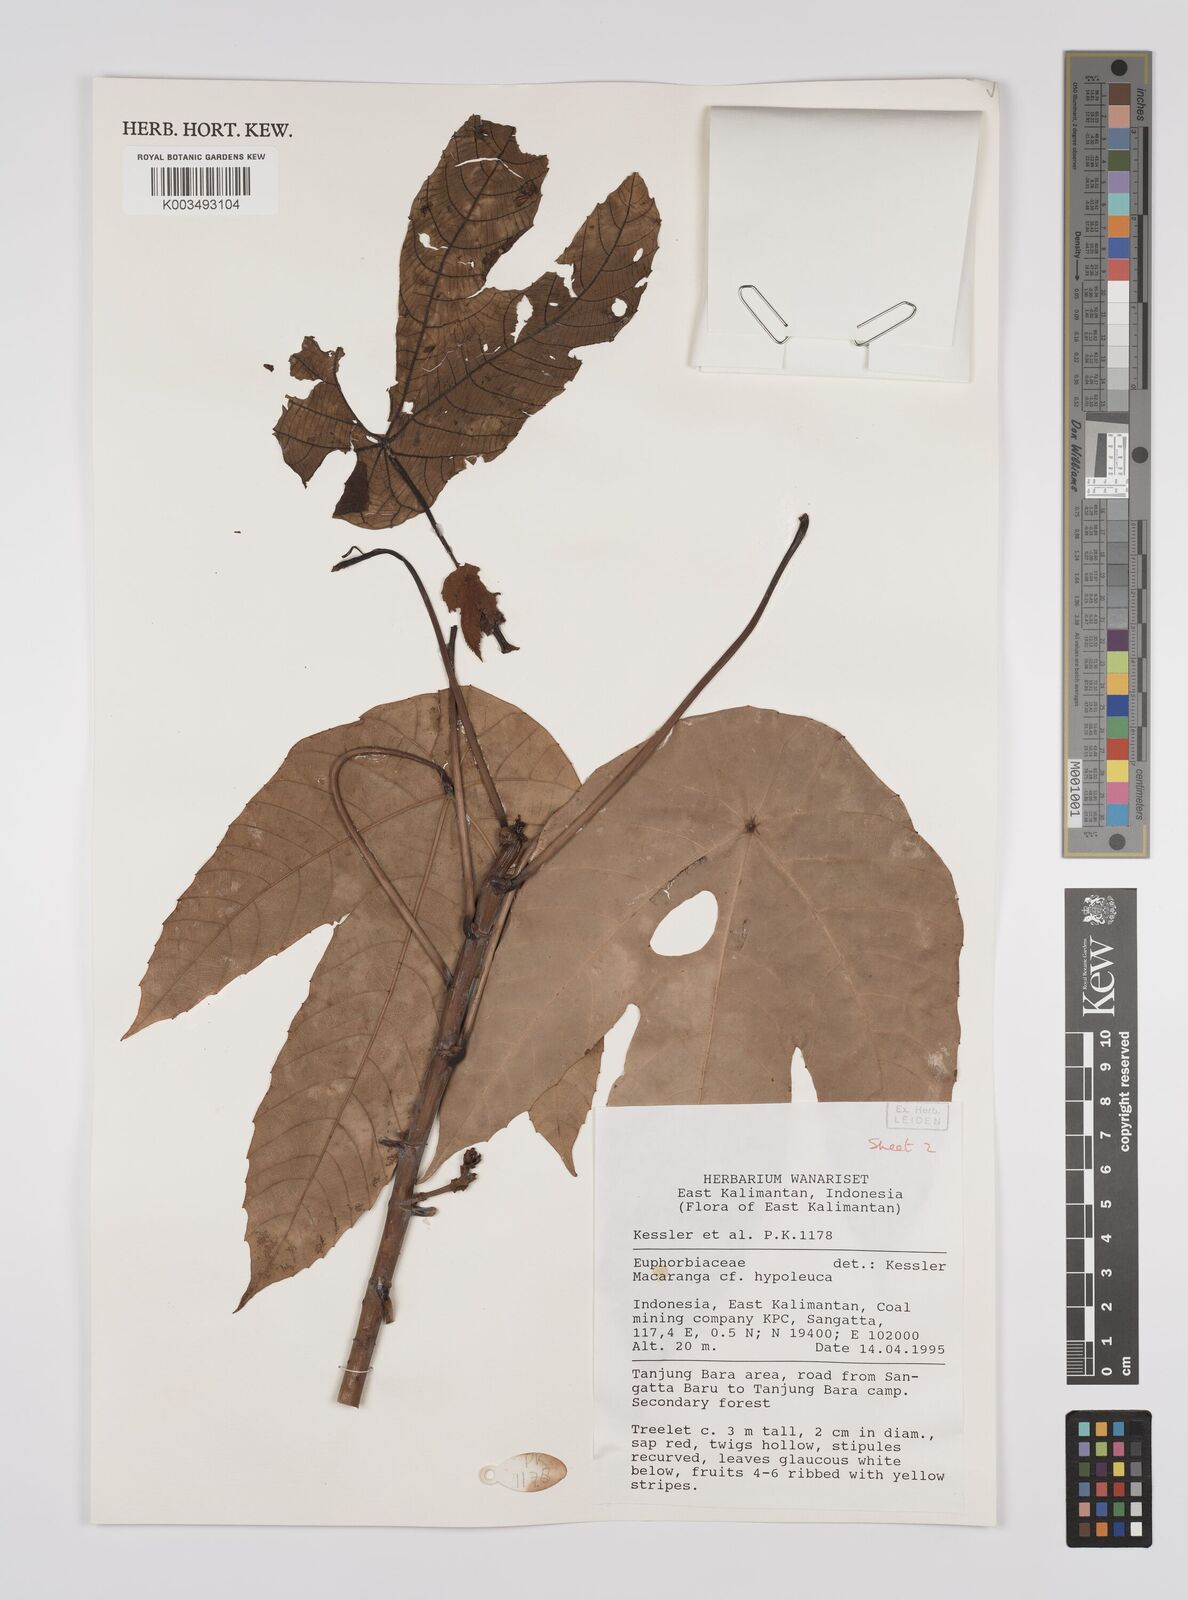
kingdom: Plantae
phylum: Tracheophyta
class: Magnoliopsida
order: Malpighiales
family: Euphorbiaceae
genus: Macaranga
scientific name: Macaranga hypoleuca
